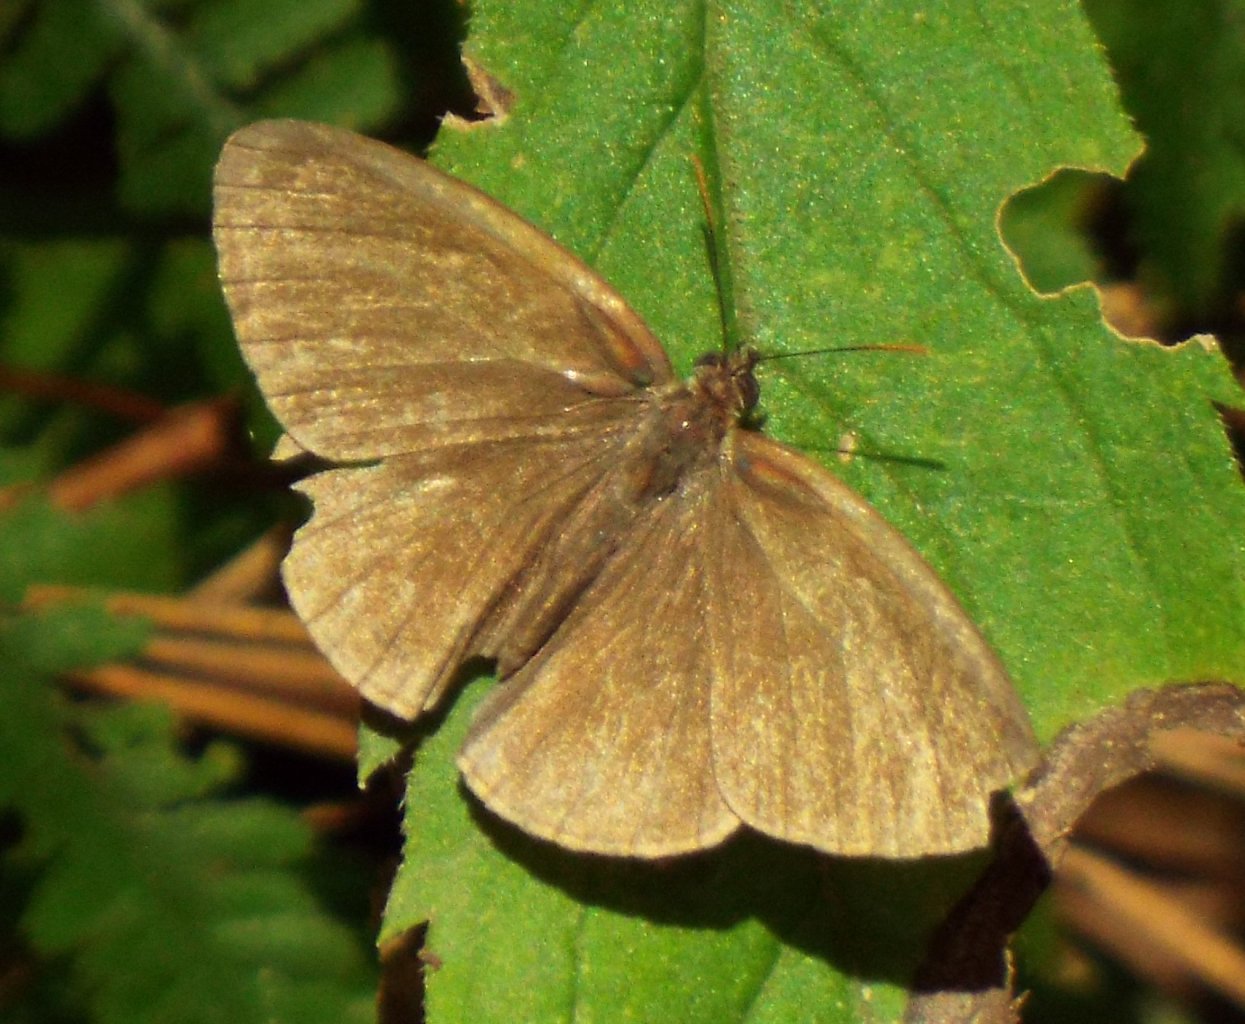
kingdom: Animalia
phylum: Arthropoda
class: Insecta
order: Lepidoptera
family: Nymphalidae
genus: Hermeuptychia
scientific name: Hermeuptychia intricata
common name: Intricate Satyr
